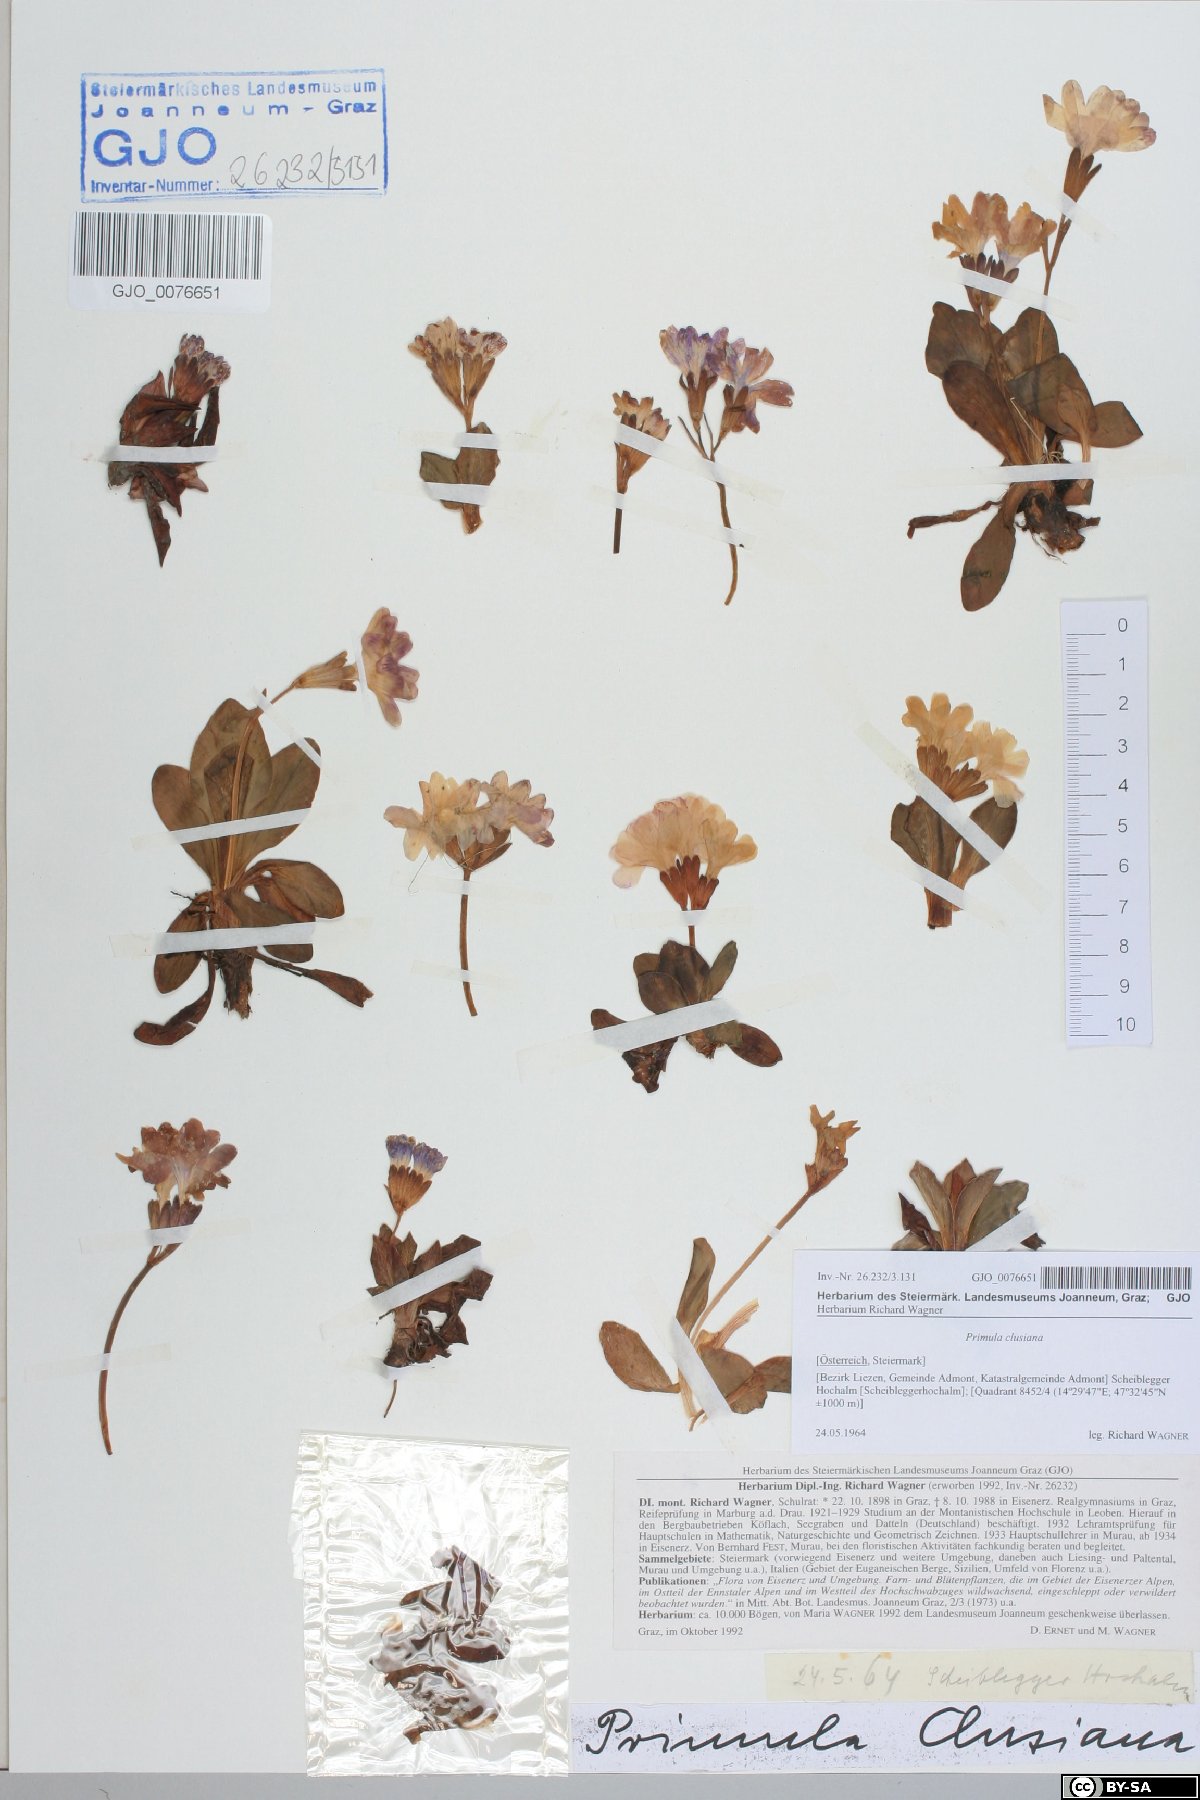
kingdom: Plantae
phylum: Tracheophyta
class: Magnoliopsida
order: Ericales
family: Primulaceae
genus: Primula
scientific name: Primula clusiana
